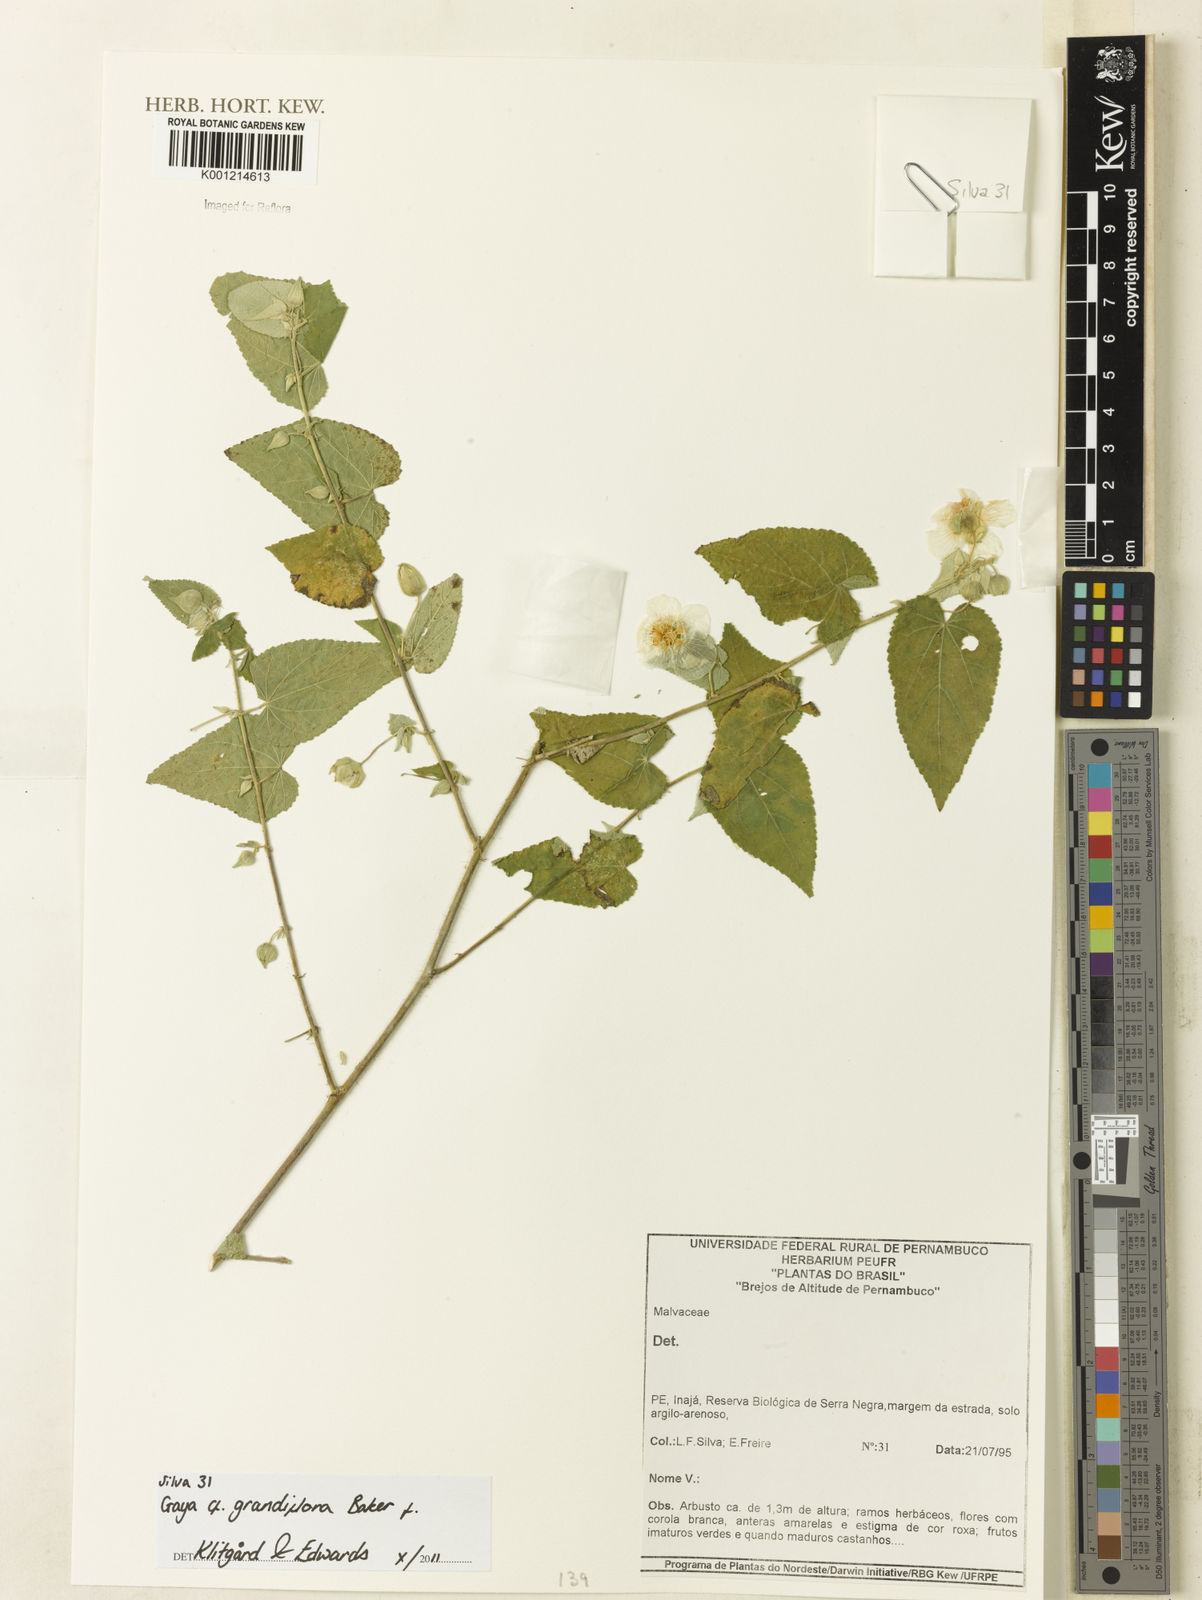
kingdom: Plantae
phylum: Tracheophyta
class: Magnoliopsida
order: Malvales
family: Malvaceae
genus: Gaya
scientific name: Gaya grandiflora
